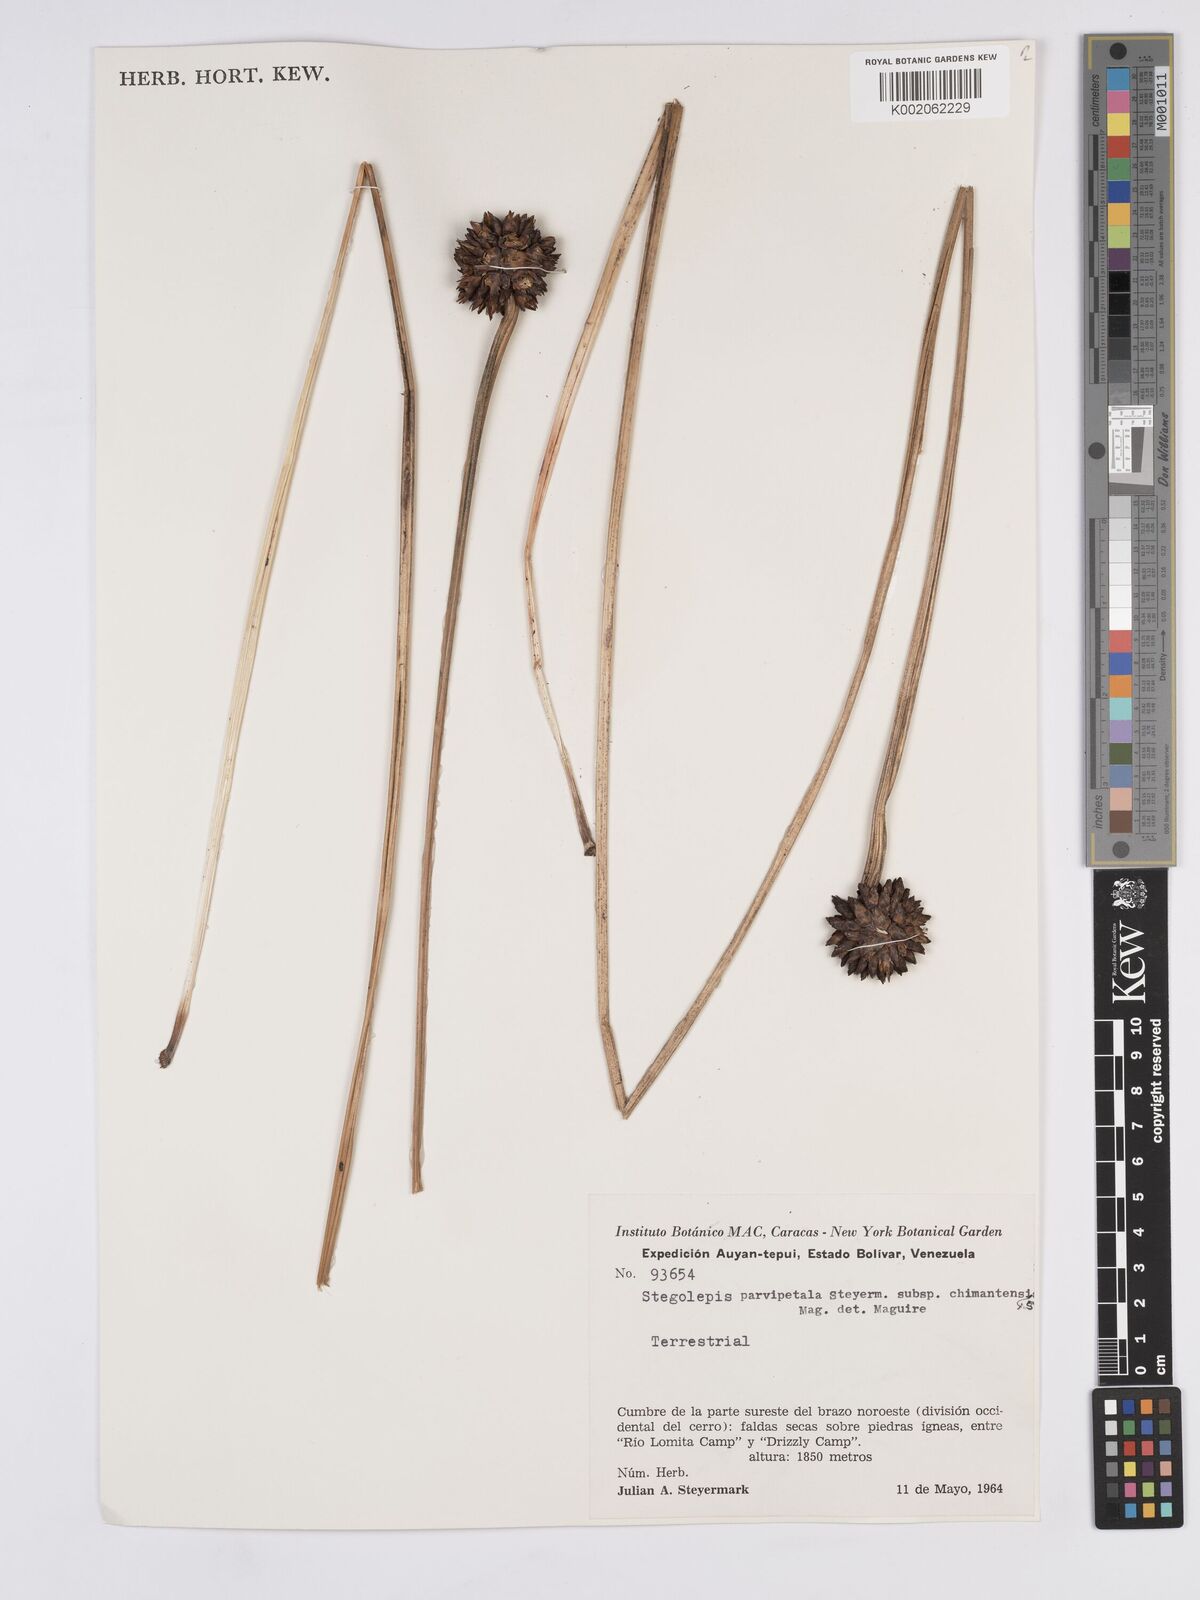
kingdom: Plantae
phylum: Tracheophyta
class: Liliopsida
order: Poales
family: Rapateaceae
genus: Stegolepis
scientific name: Stegolepis parvipetala
